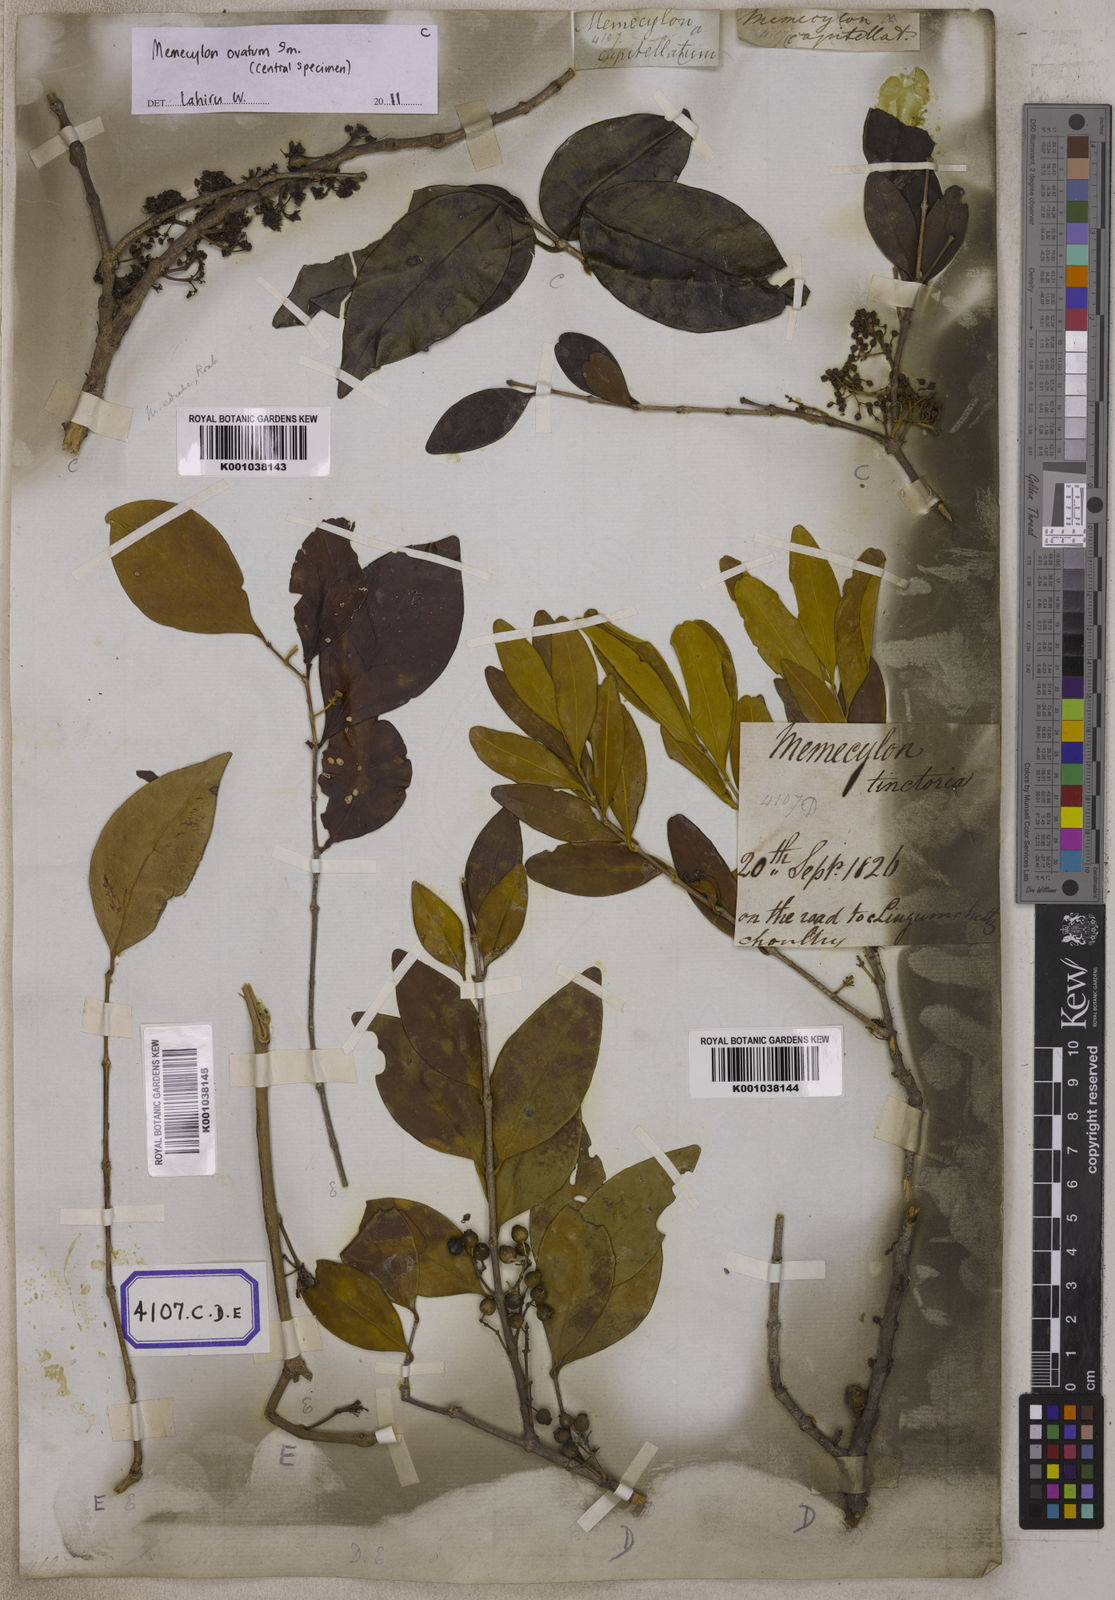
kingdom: Plantae
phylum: Tracheophyta
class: Magnoliopsida
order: Myrtales
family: Melastomataceae
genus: Memecylon
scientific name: Memecylon edule
